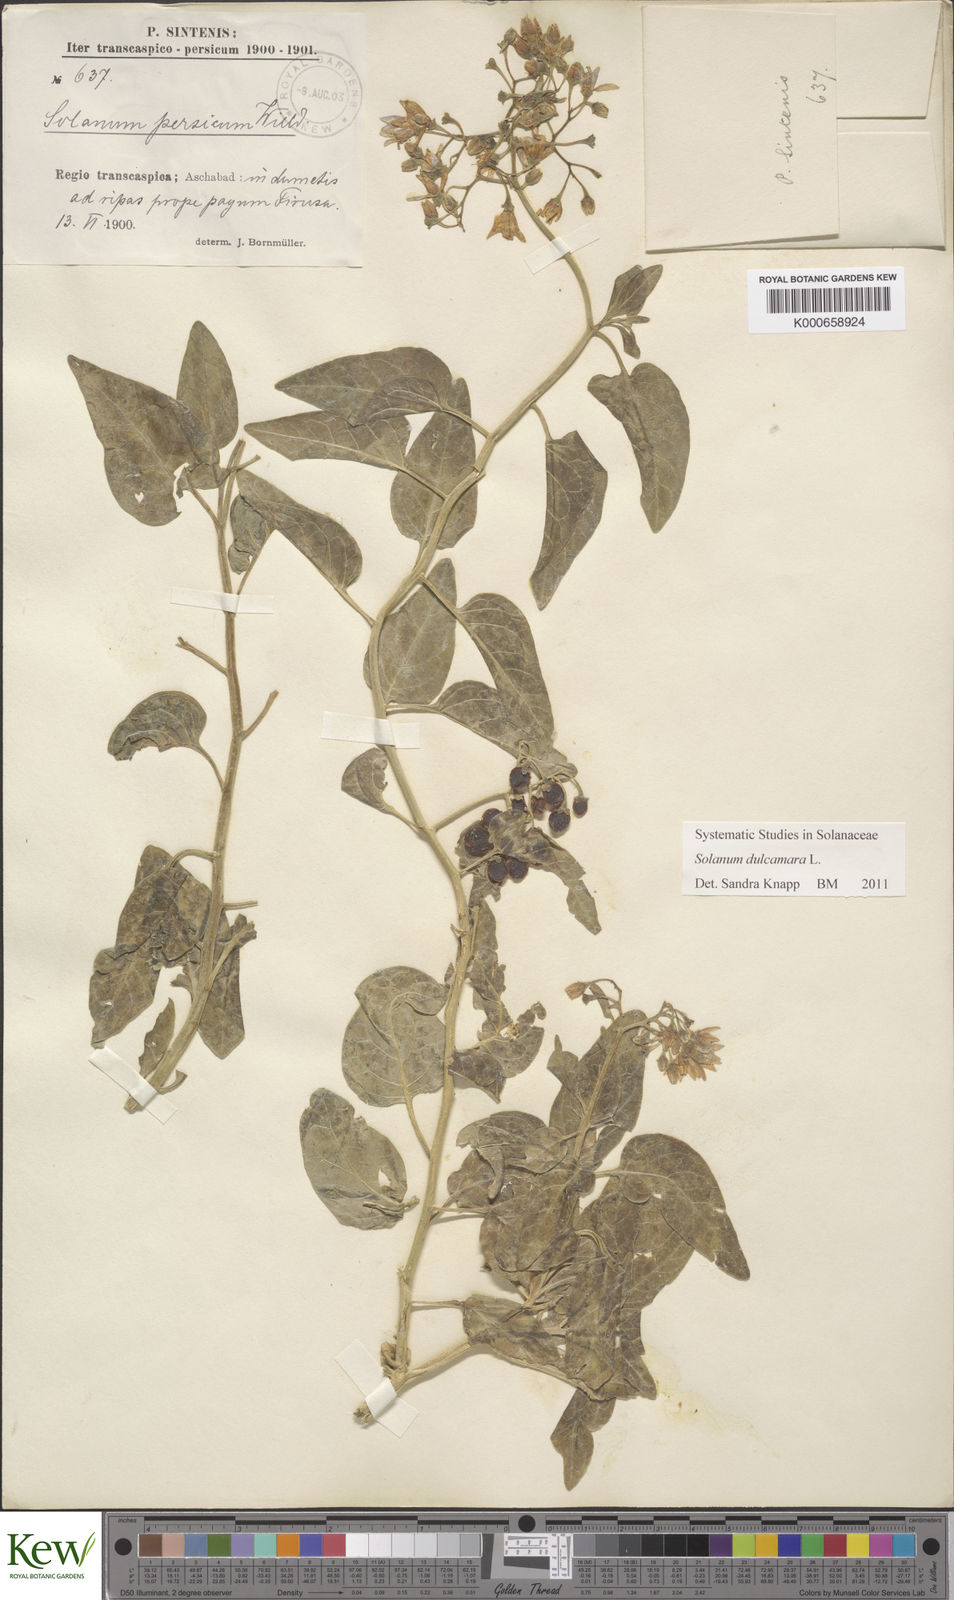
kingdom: Plantae
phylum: Tracheophyta
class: Magnoliopsida
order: Solanales
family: Solanaceae
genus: Solanum
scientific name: Solanum dulcamara
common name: Climbing nightshade
